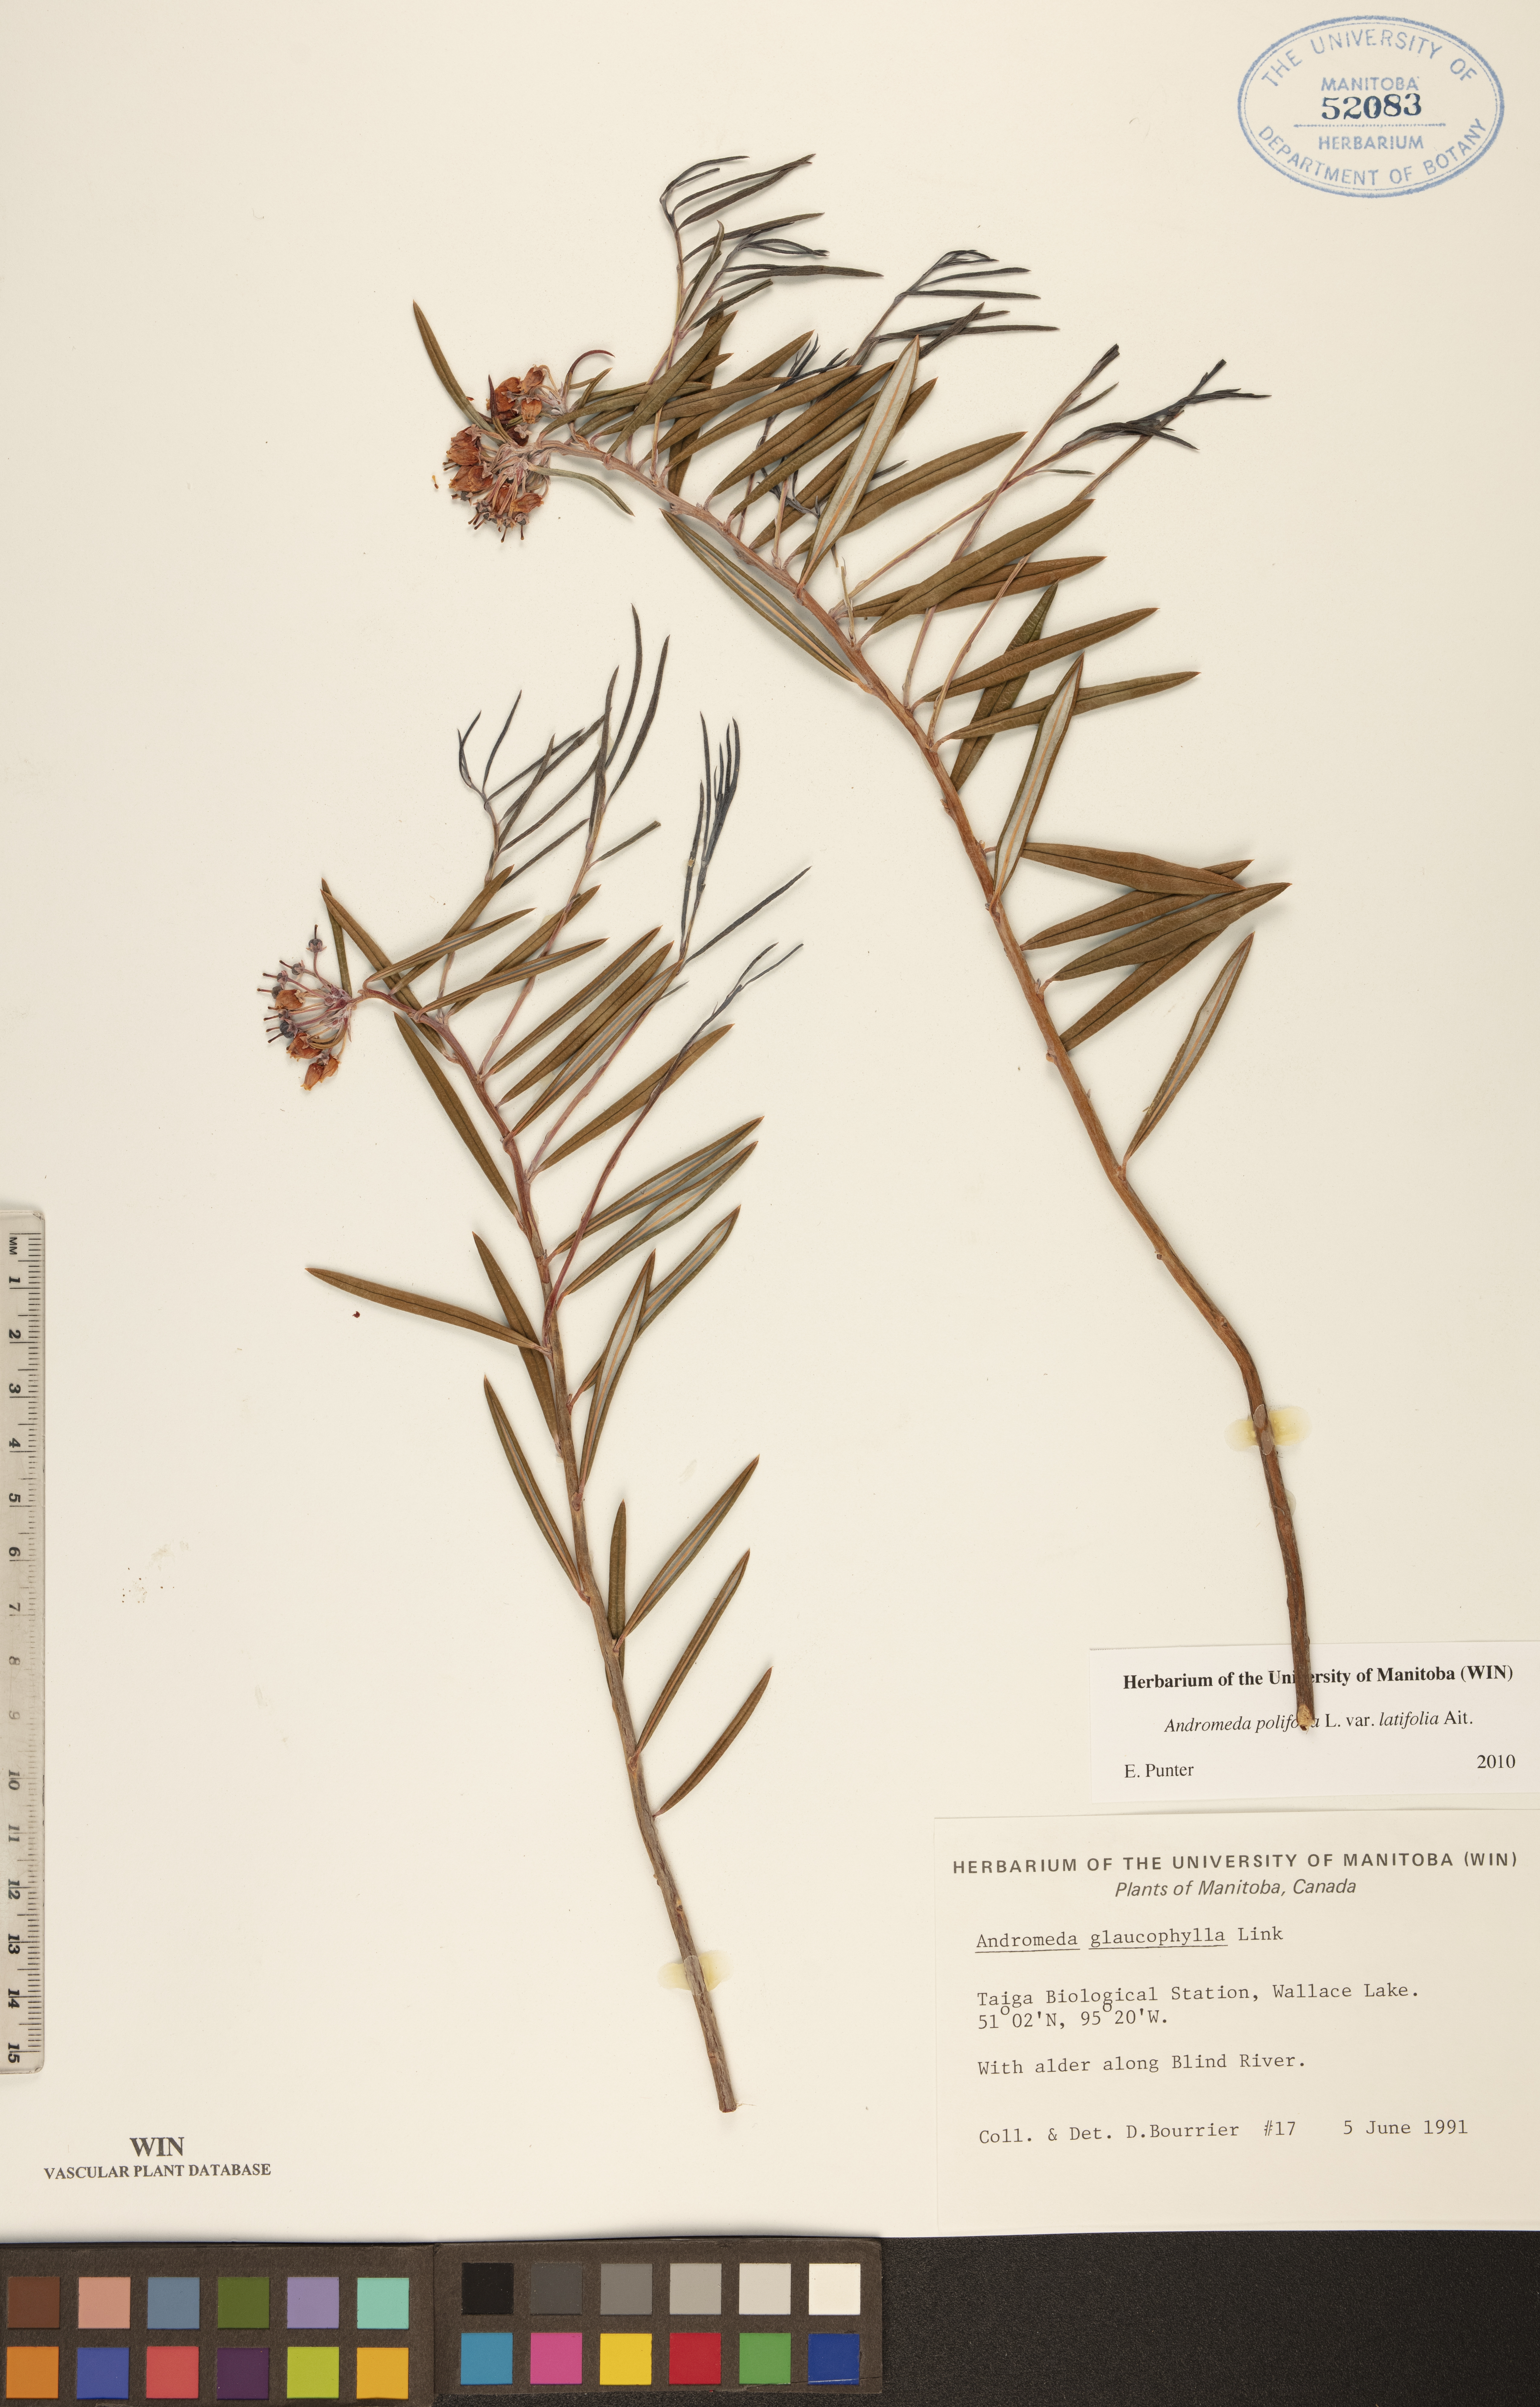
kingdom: Plantae
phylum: Tracheophyta
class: Magnoliopsida
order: Ericales
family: Ericaceae
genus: Andromeda
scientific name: Andromeda polifolia
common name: Bog-rosemary
